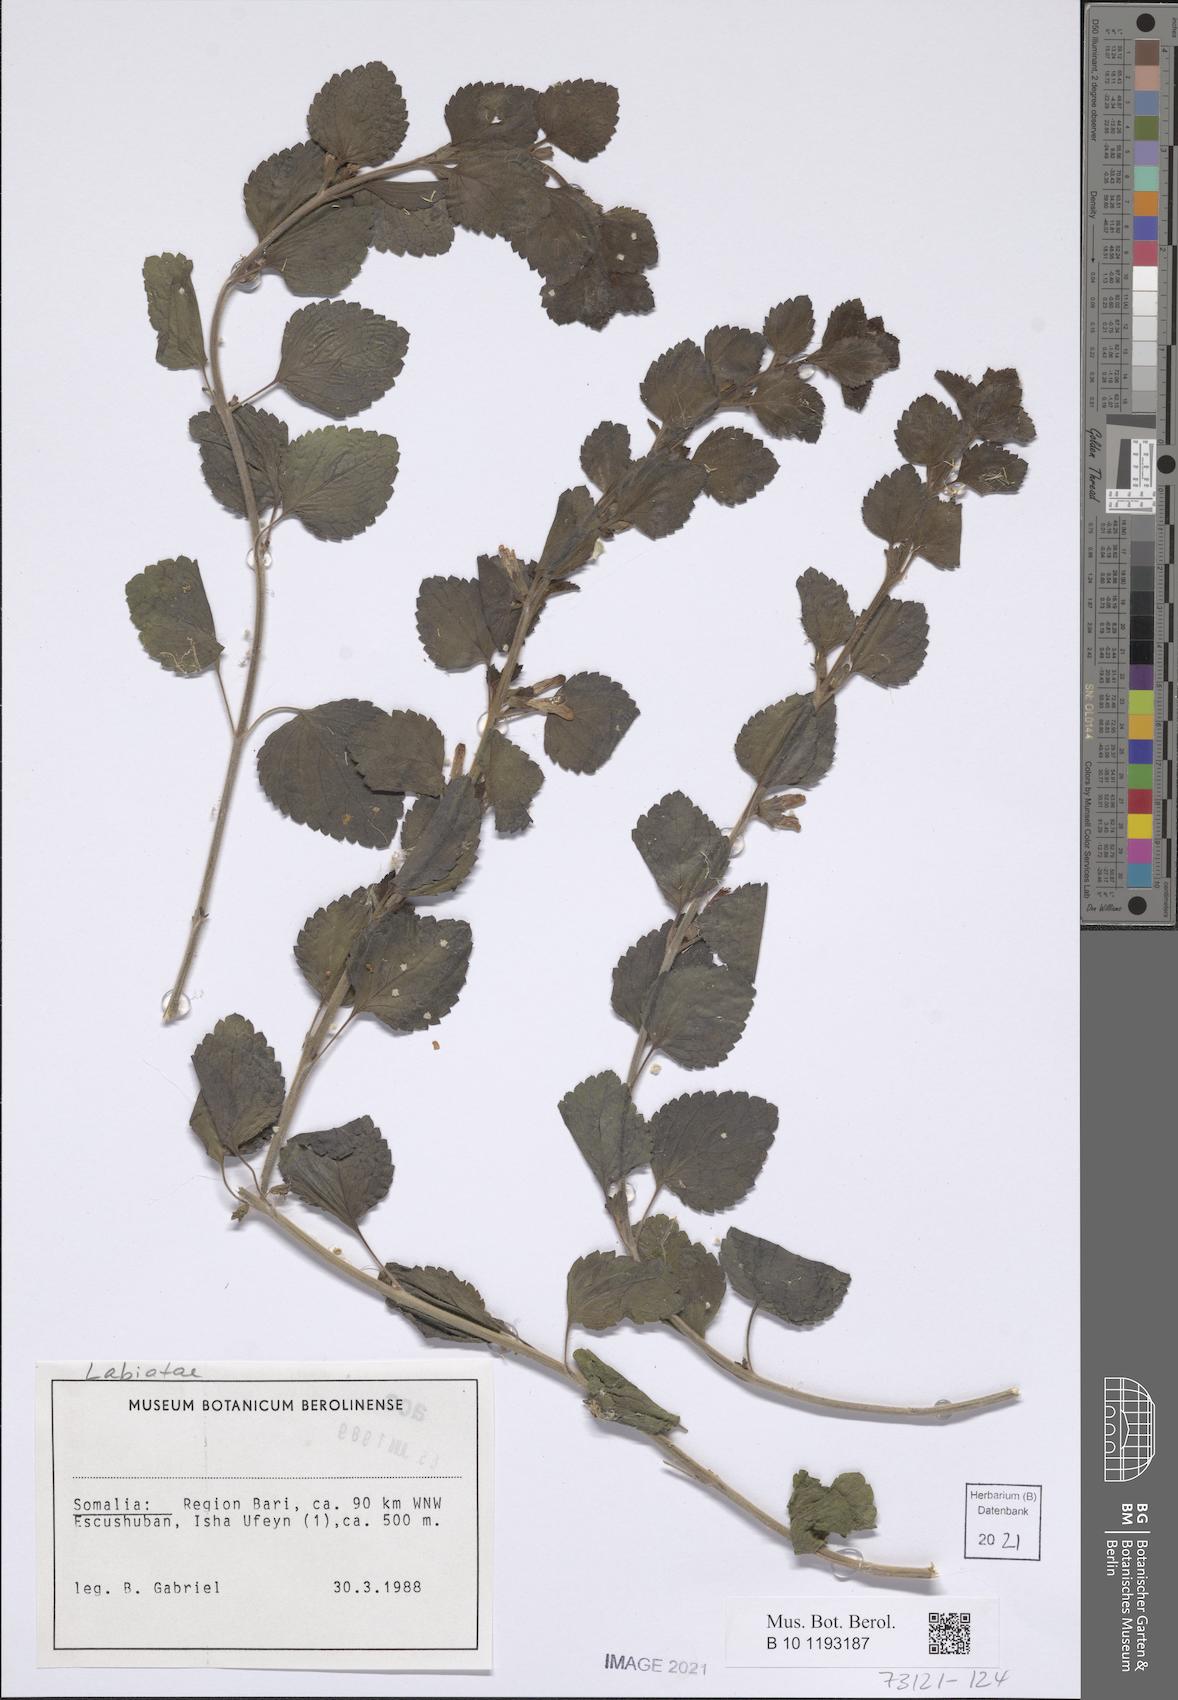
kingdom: Plantae
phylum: Tracheophyta
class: Magnoliopsida
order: Lamiales
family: Lamiaceae
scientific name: Lamiaceae
